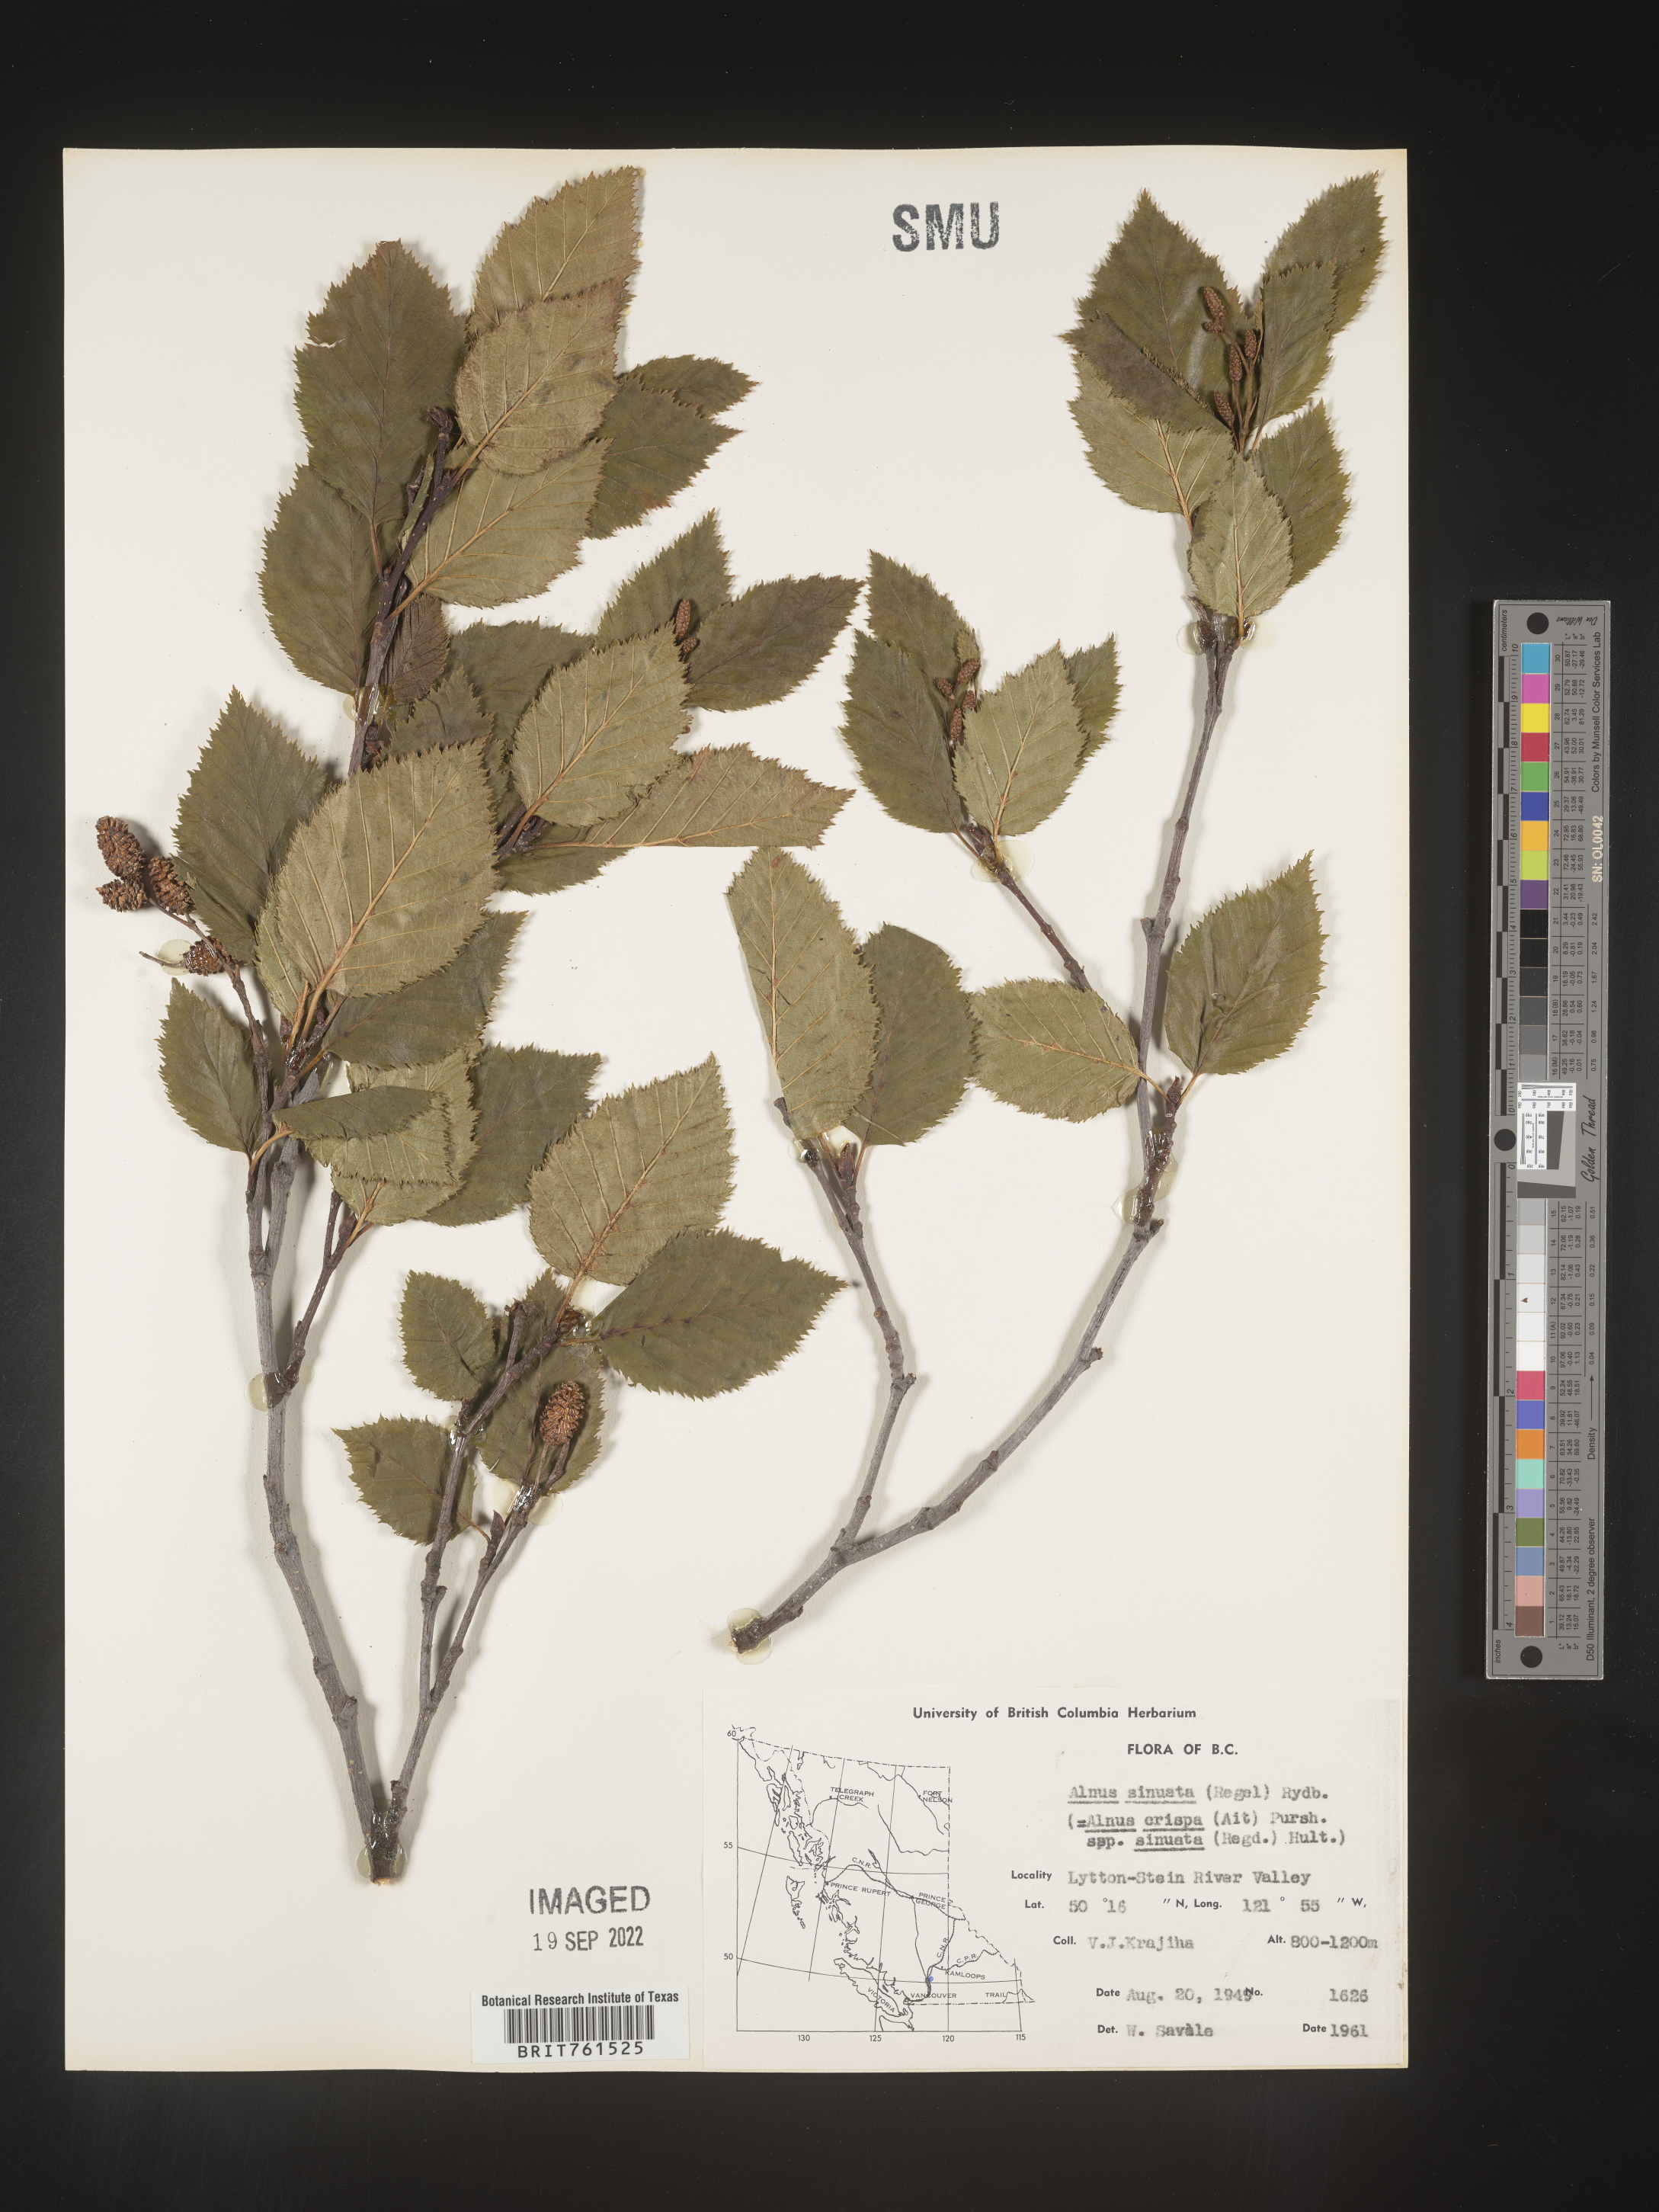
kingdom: Plantae
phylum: Tracheophyta
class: Magnoliopsida
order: Fagales
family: Betulaceae
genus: Alnus
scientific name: Alnus alnobetula
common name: Green alder
